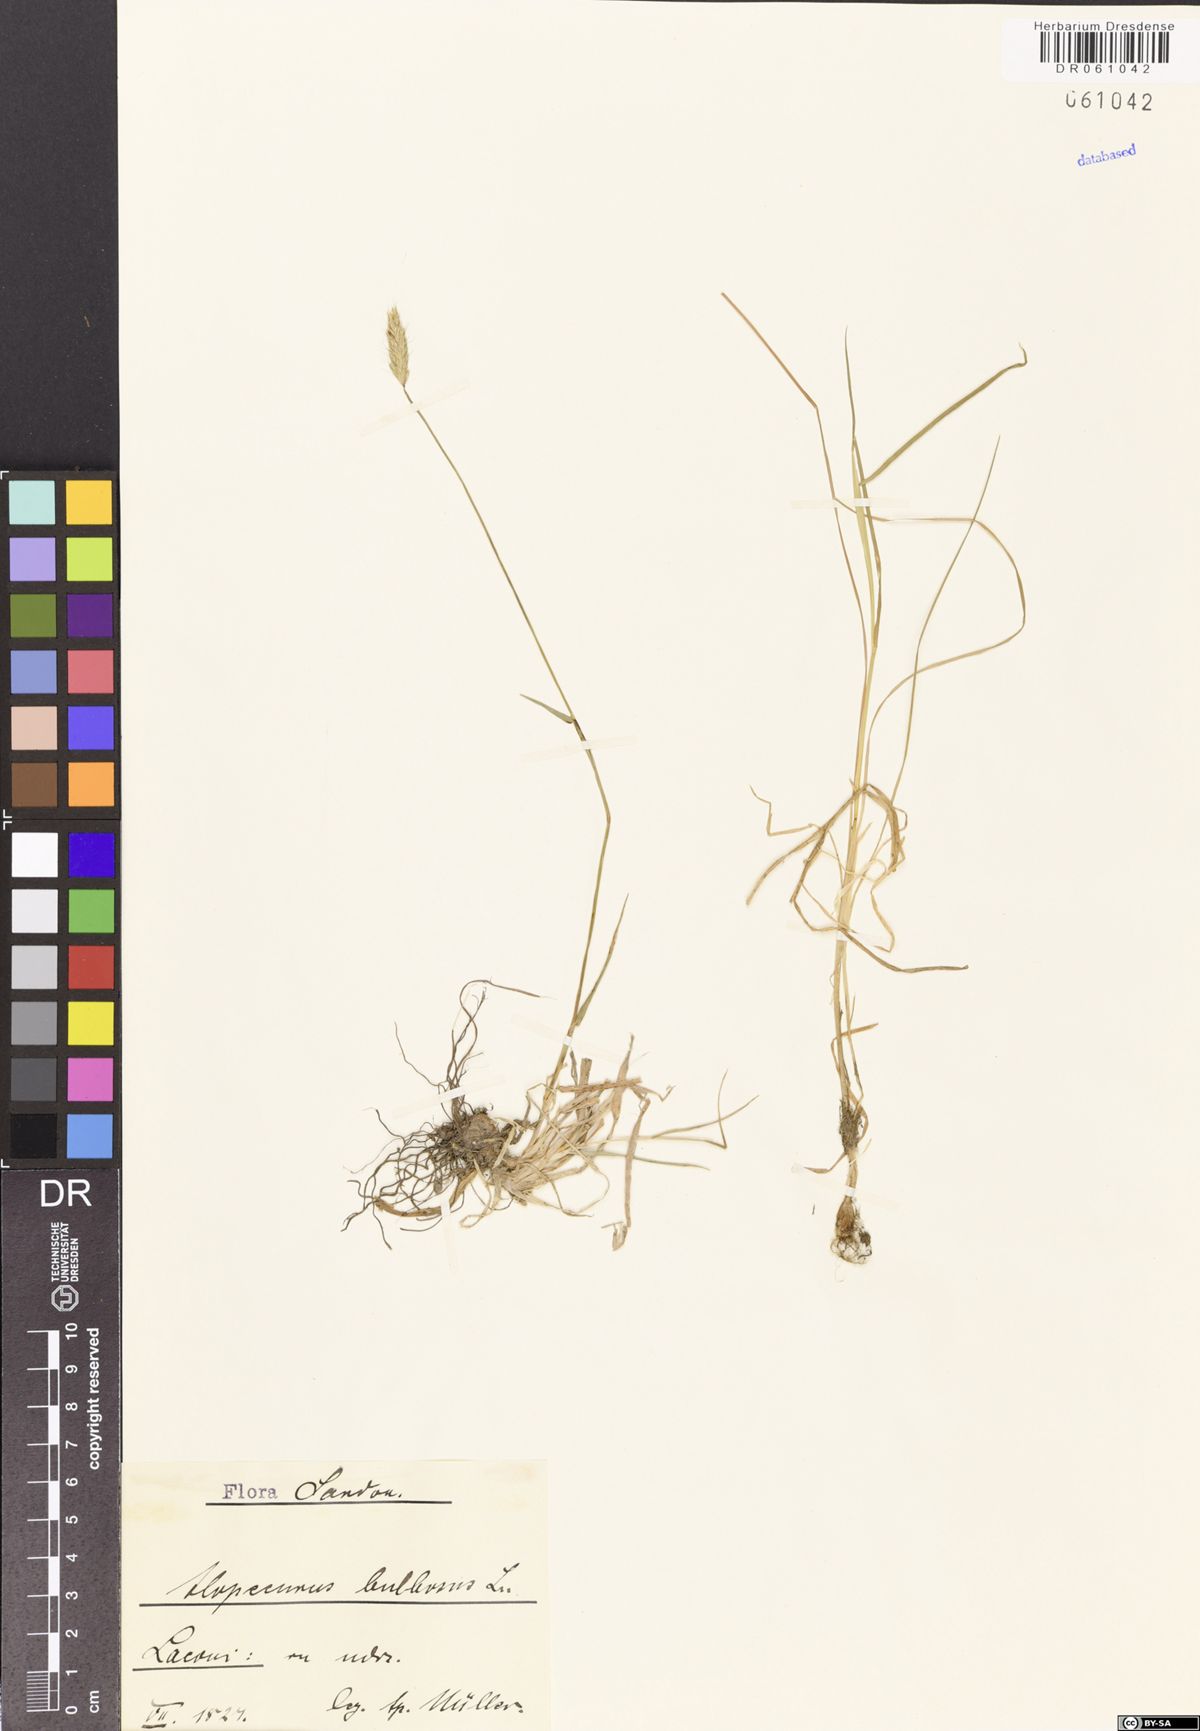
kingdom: Plantae
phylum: Tracheophyta
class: Liliopsida
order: Poales
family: Poaceae
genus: Alopecurus
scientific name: Alopecurus bulbosus
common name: Bulbous foxtail
